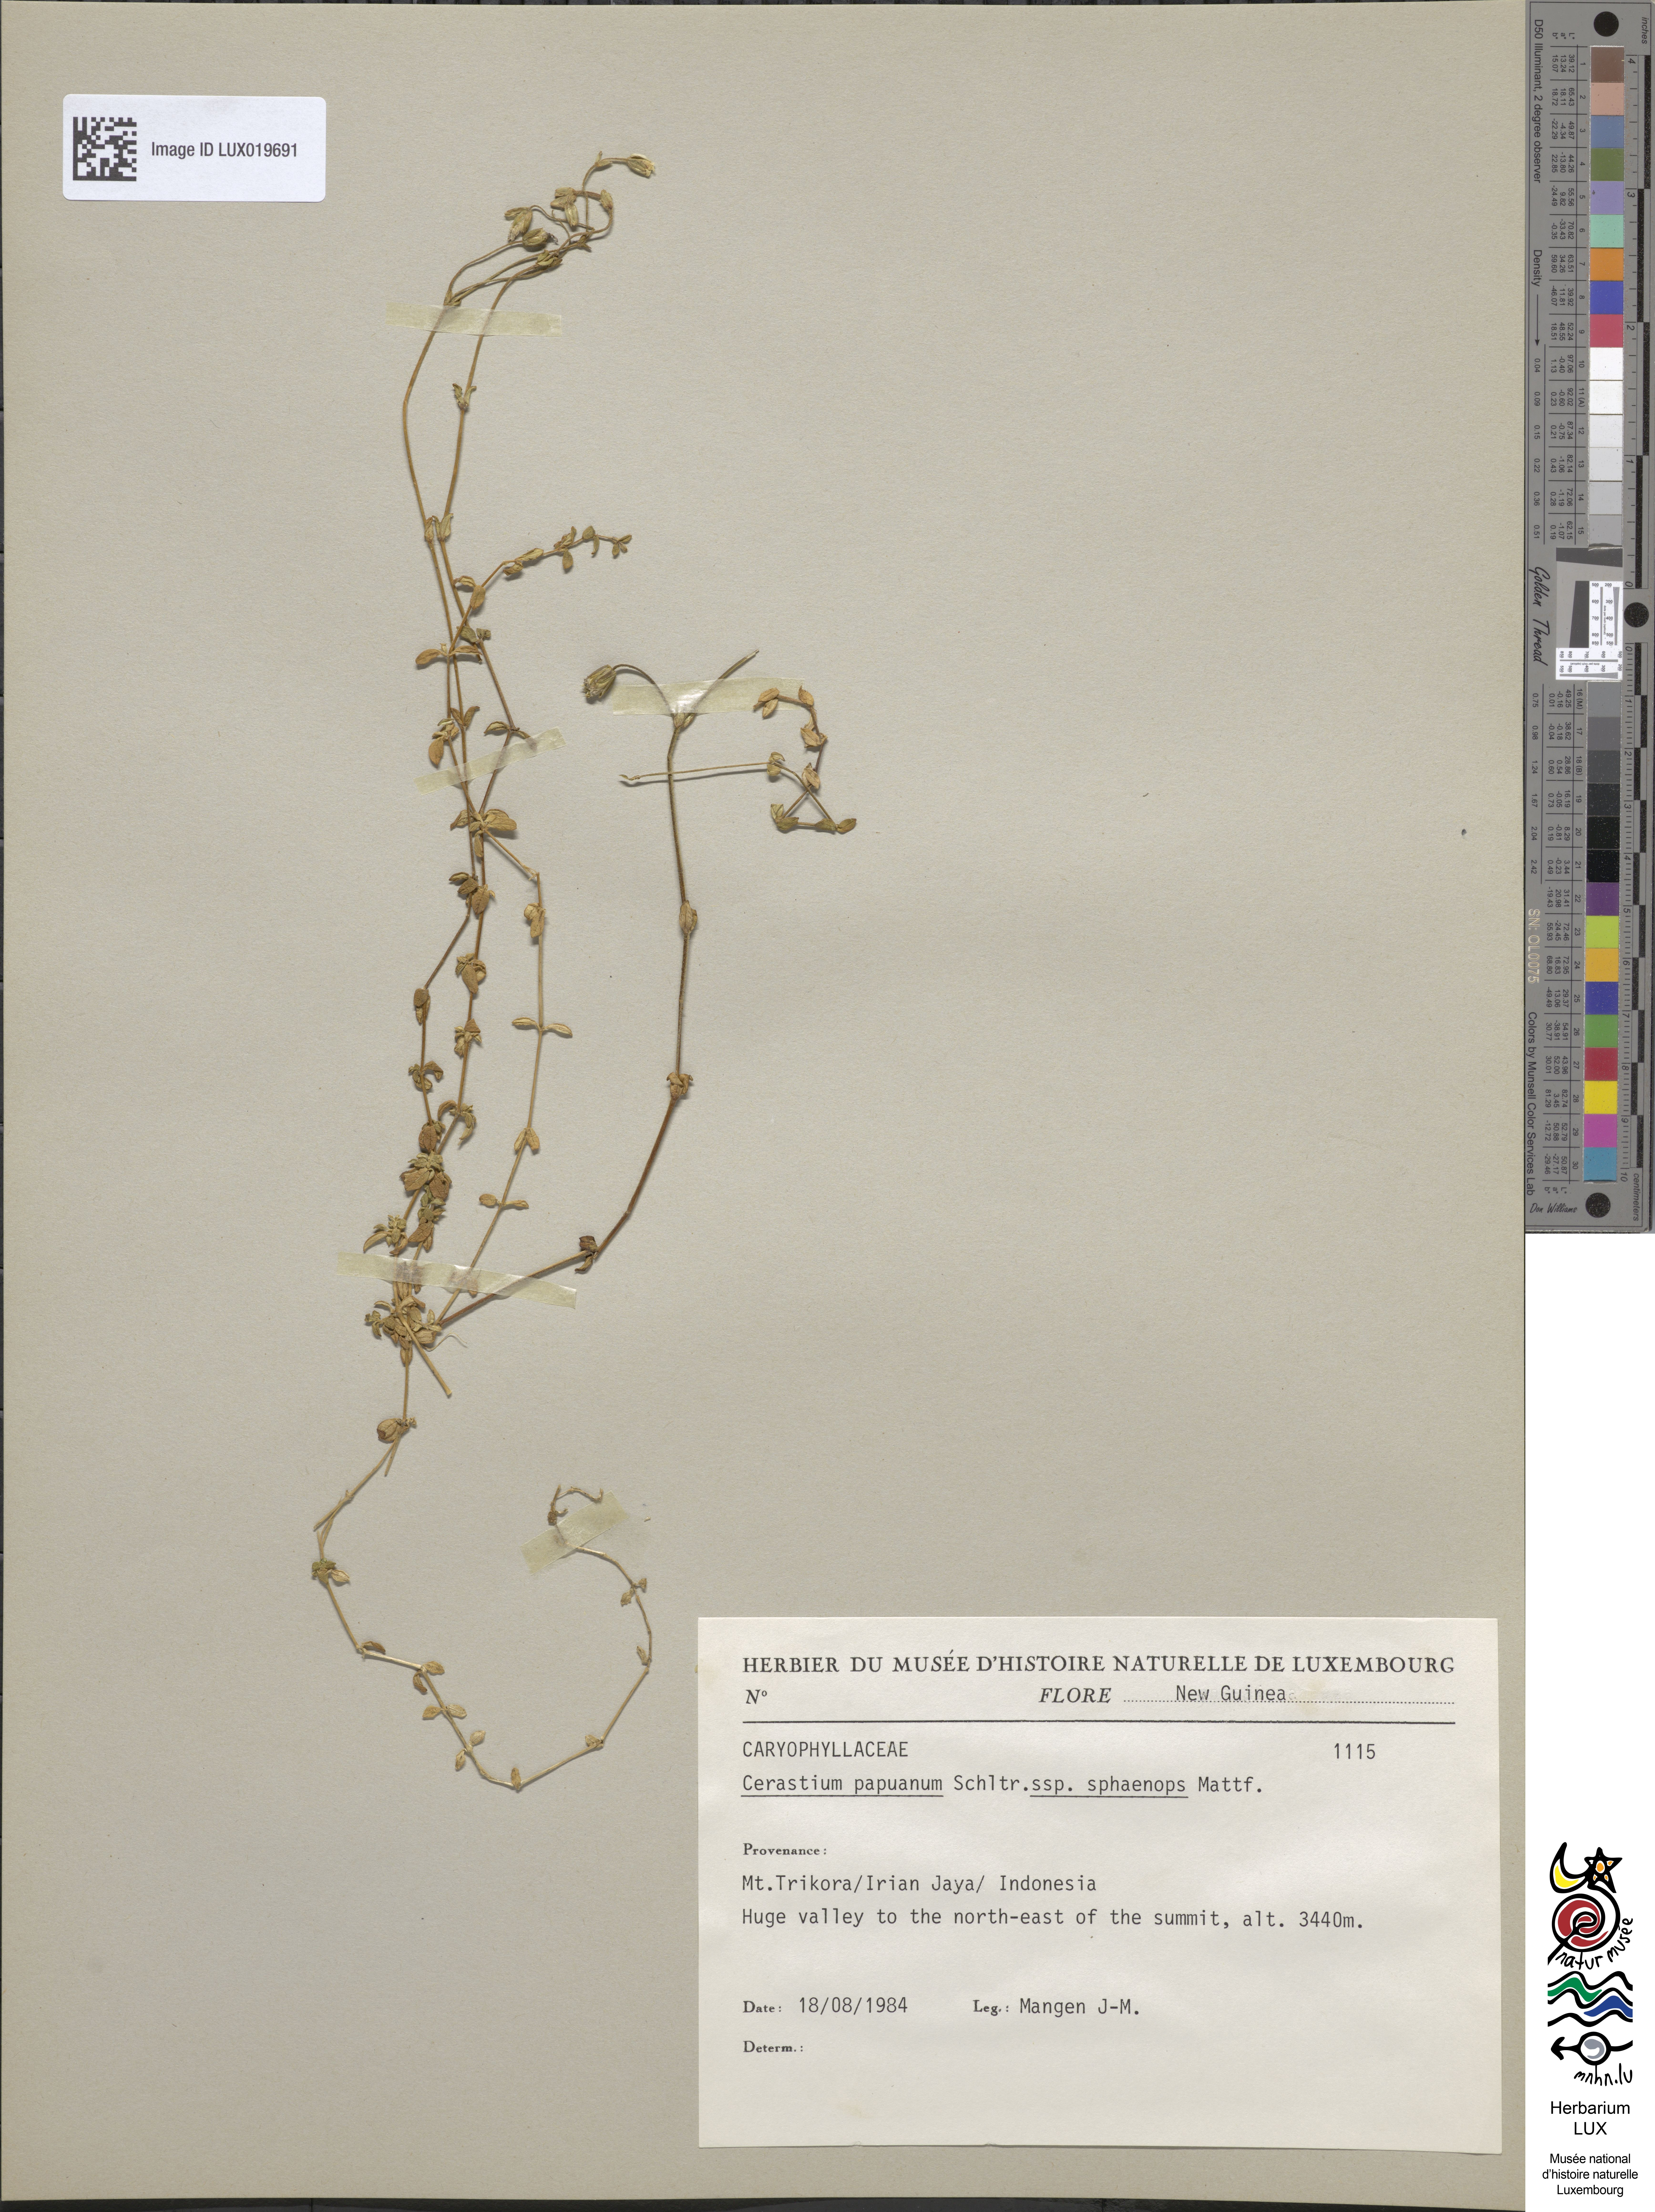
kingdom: Plantae
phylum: Tracheophyta
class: Magnoliopsida
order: Caryophyllales
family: Caryophyllaceae
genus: Cerastium
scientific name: Cerastium papuanum
